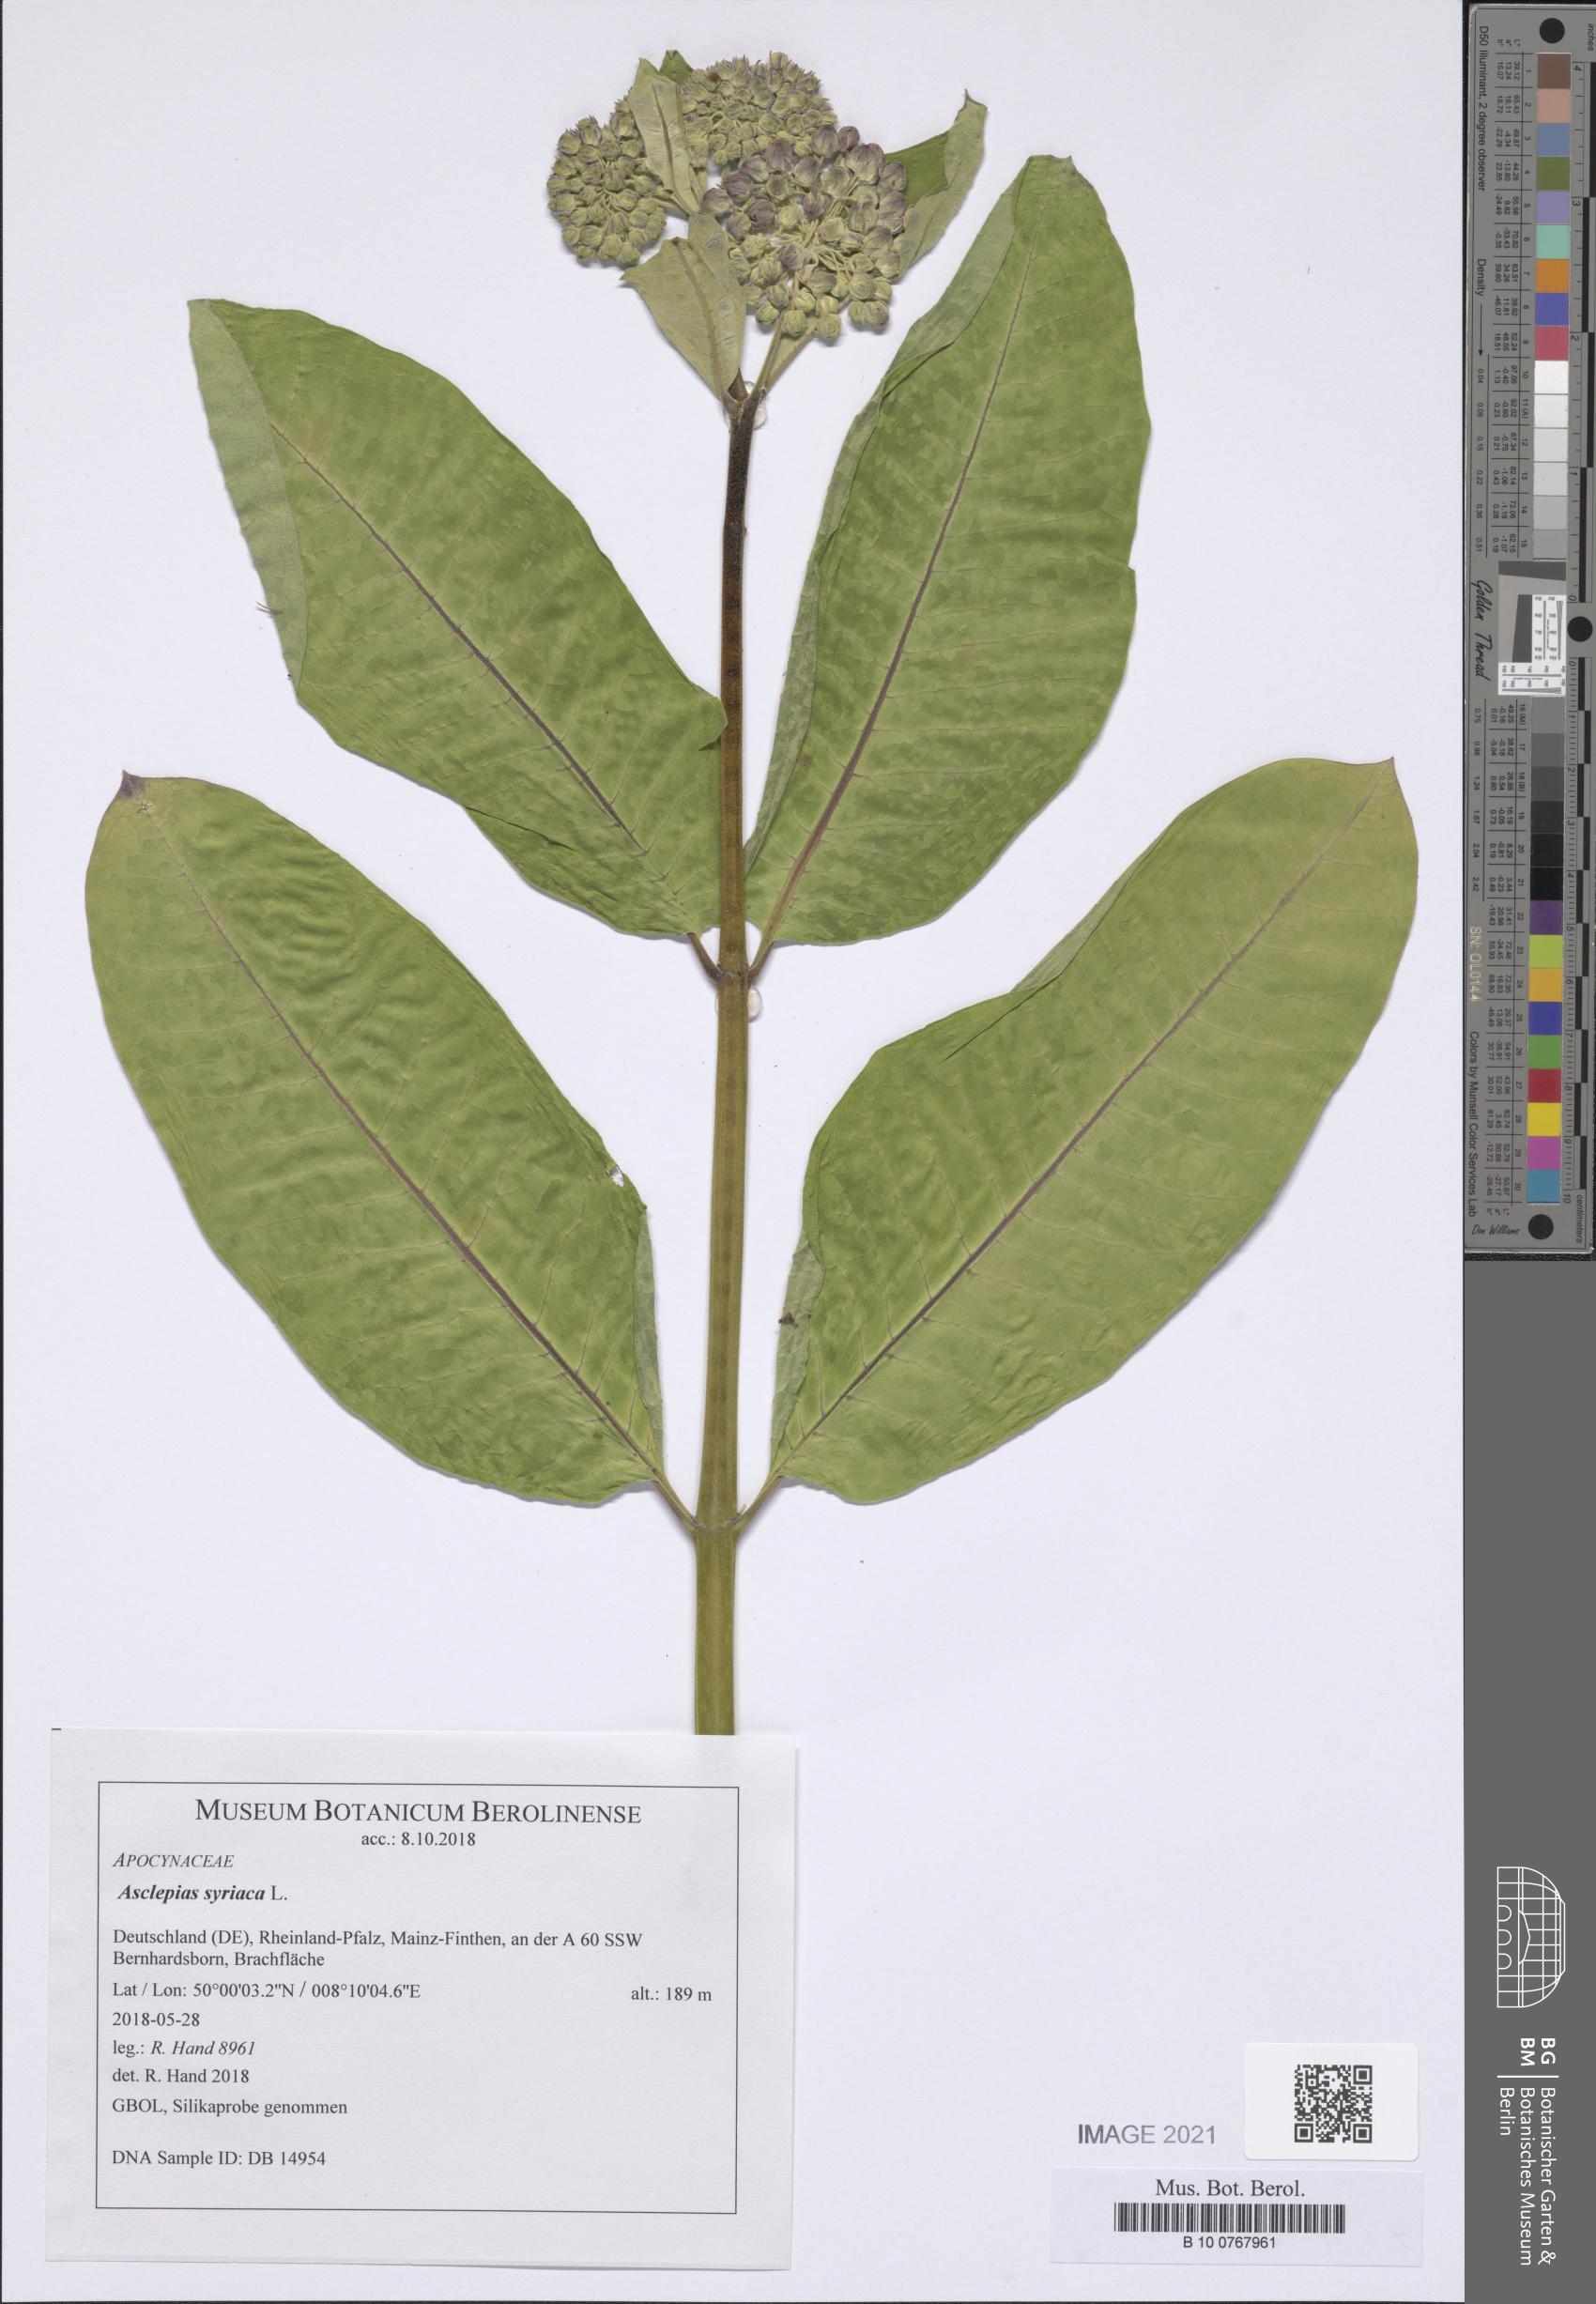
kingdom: Plantae
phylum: Tracheophyta
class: Magnoliopsida
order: Gentianales
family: Apocynaceae
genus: Asclepias
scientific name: Asclepias syriaca
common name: Common milkweed
